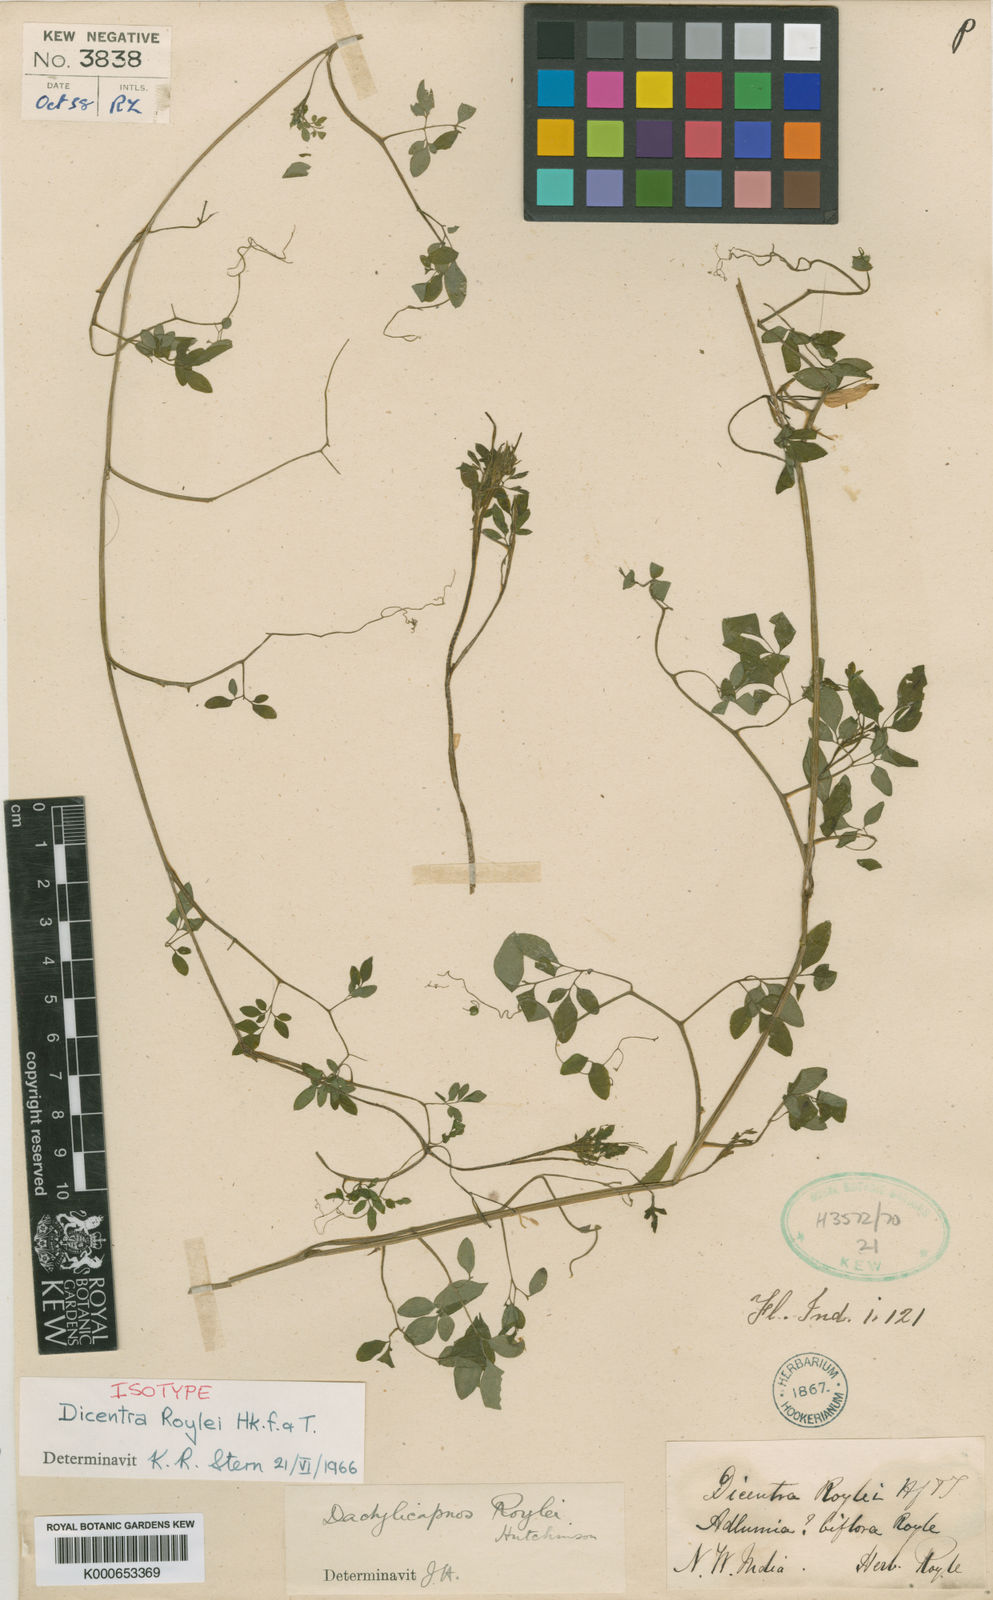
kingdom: Plantae
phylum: Tracheophyta
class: Magnoliopsida
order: Ranunculales
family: Papaveraceae
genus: Dactylicapnos
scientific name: Dactylicapnos roylei
